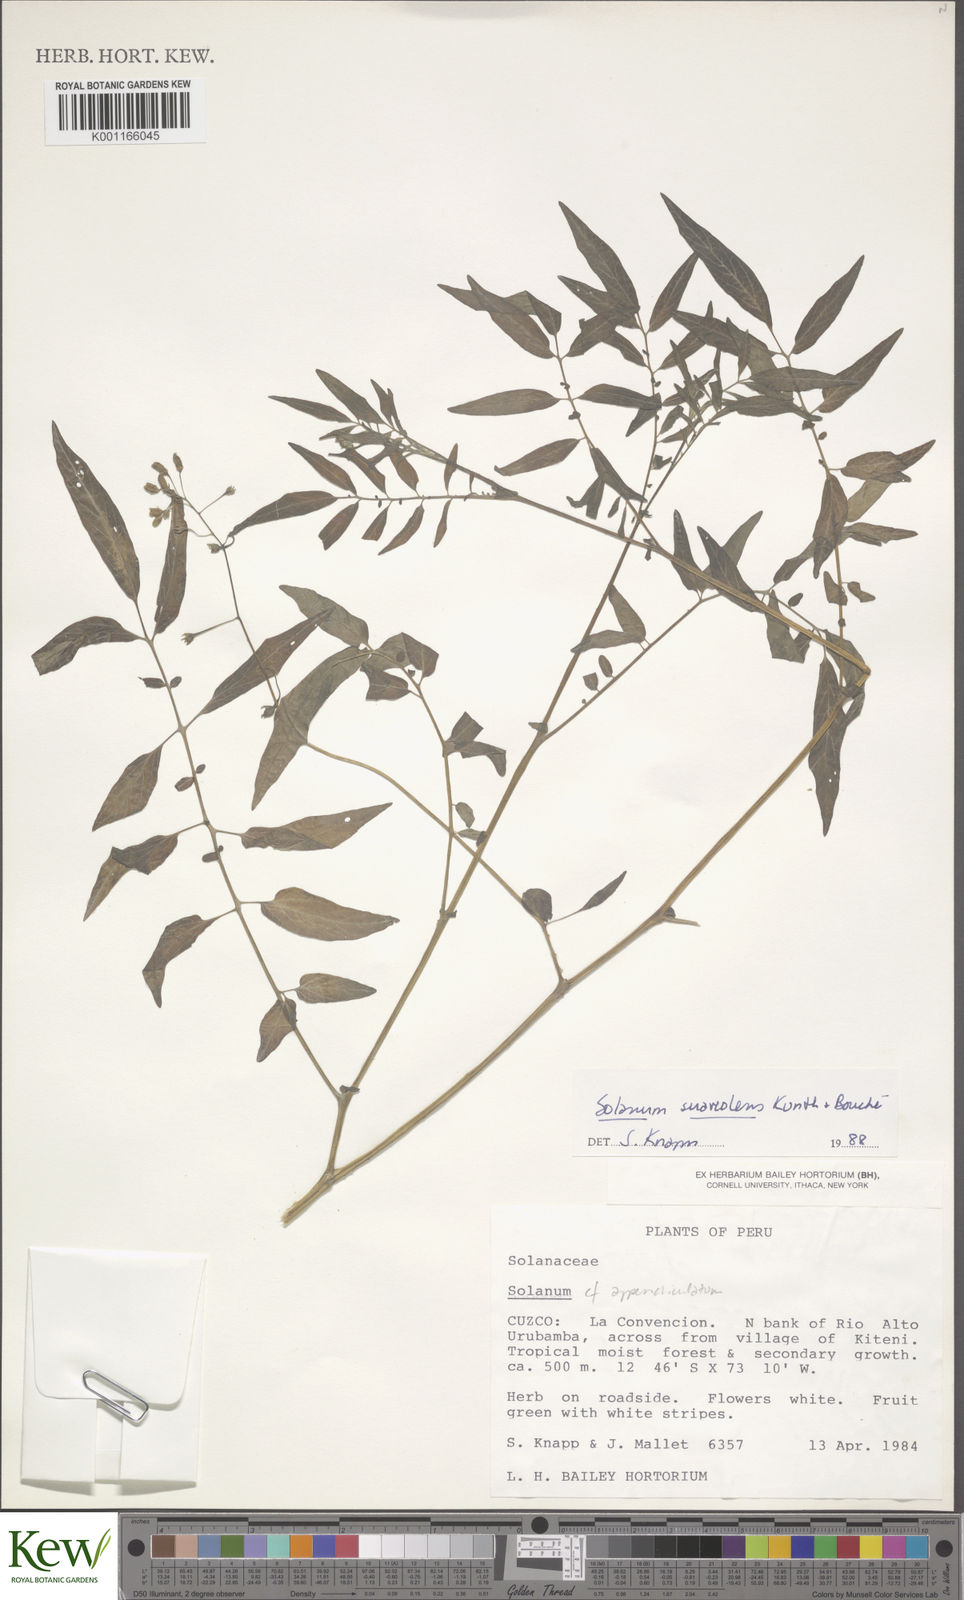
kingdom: Plantae
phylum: Tracheophyta
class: Magnoliopsida
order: Solanales
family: Solanaceae
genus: Solanum
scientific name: Solanum suaveolens
